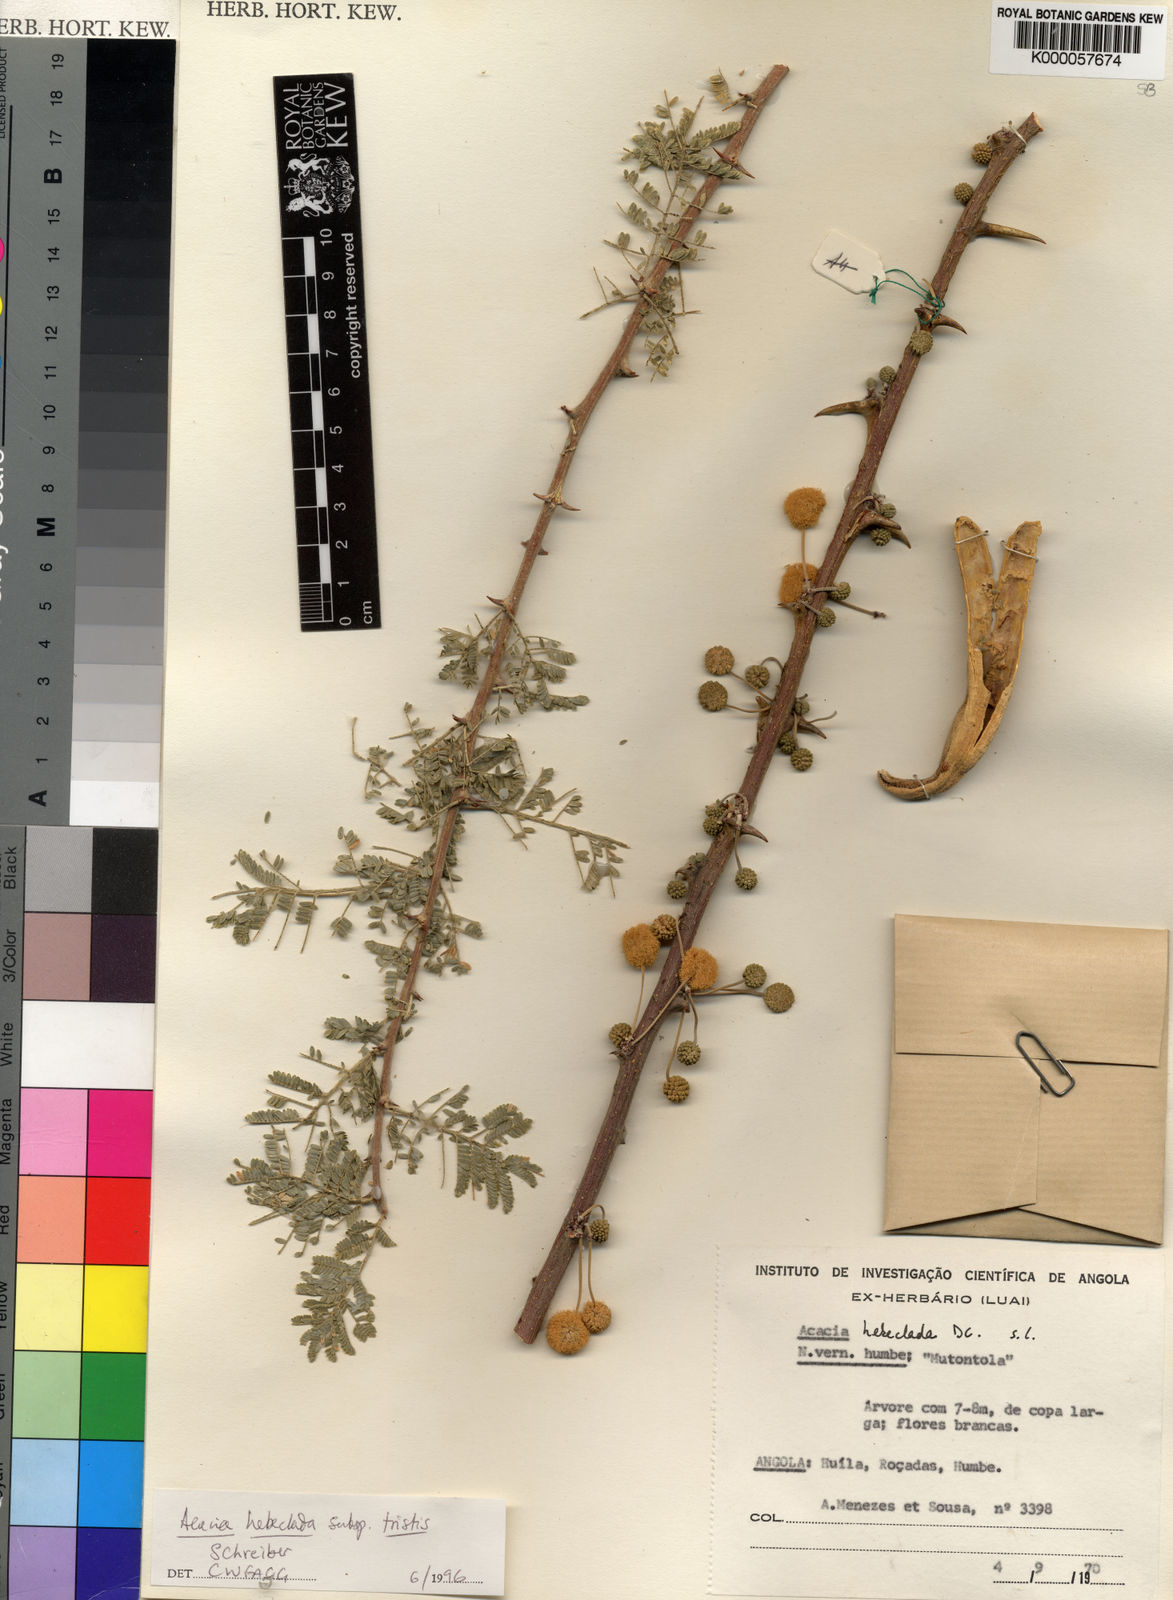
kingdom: Plantae
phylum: Tracheophyta
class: Magnoliopsida
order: Fabales
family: Fabaceae
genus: Vachellia
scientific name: Vachellia hebeclada
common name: Candle thorn
